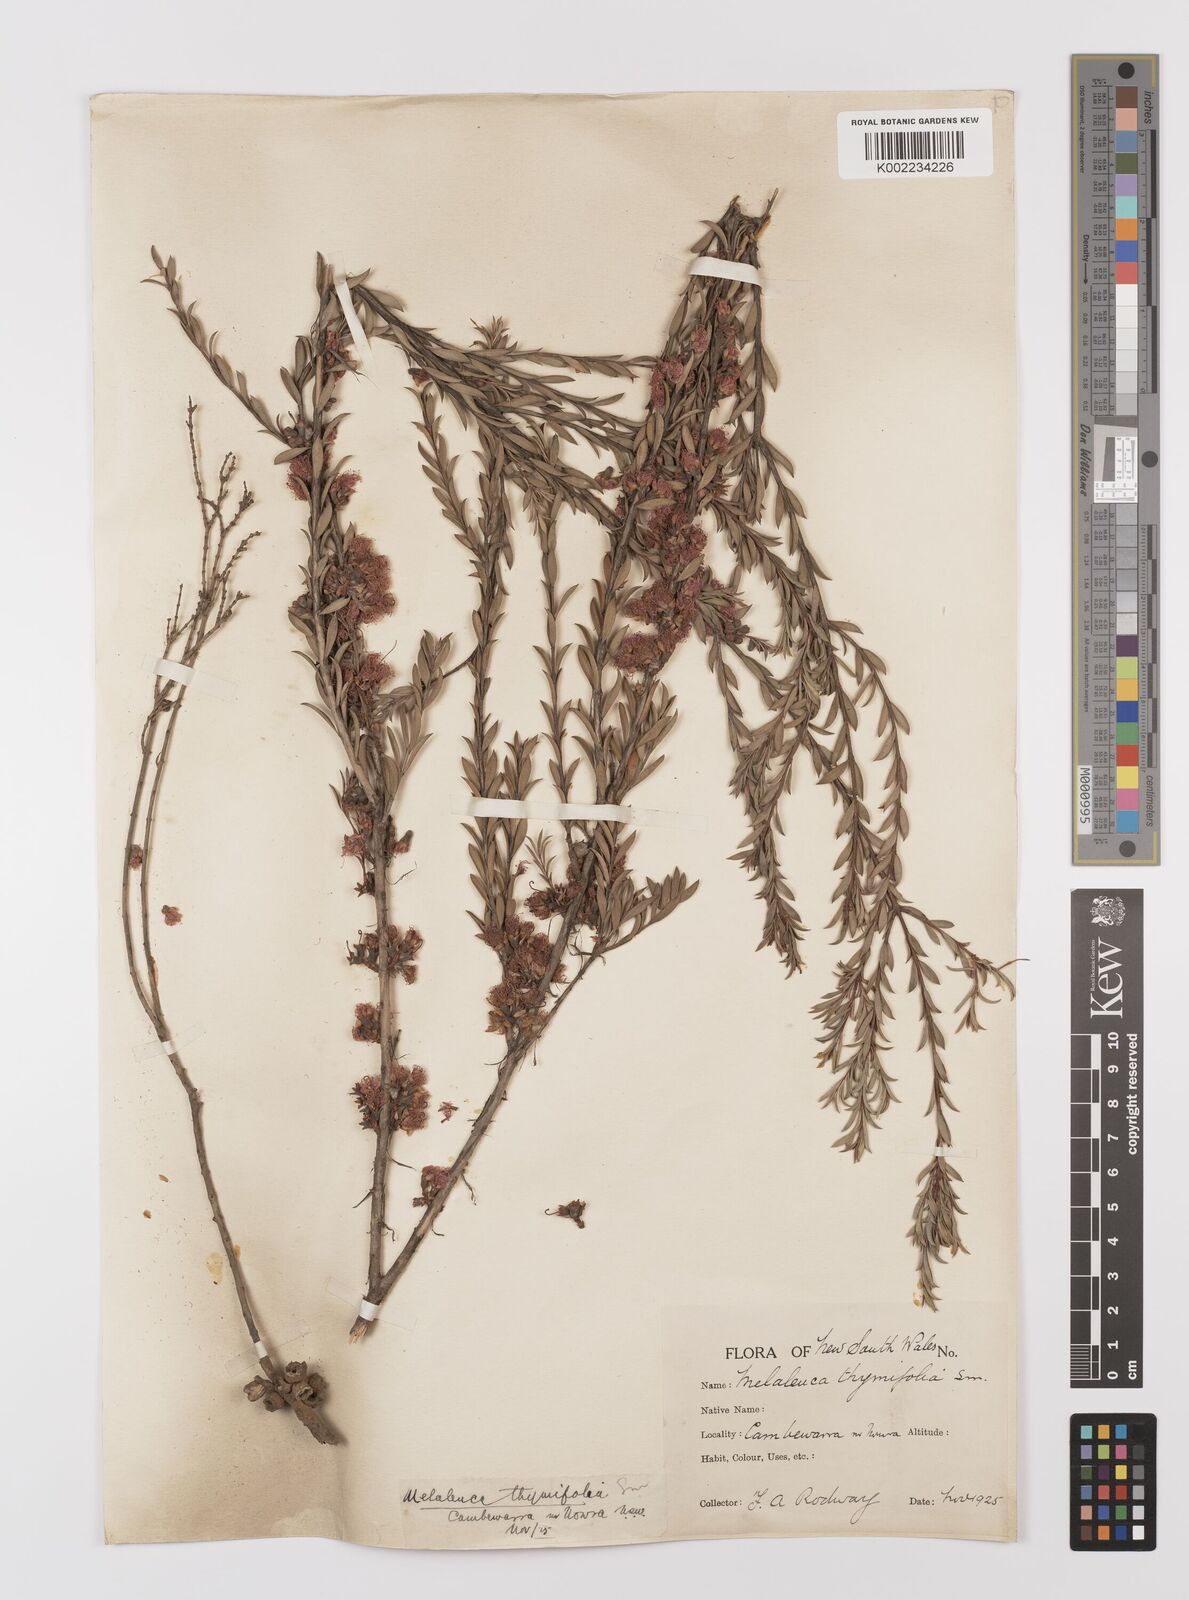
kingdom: Plantae
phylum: Tracheophyta
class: Magnoliopsida
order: Myrtales
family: Myrtaceae
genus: Melaleuca
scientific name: Melaleuca thymifolia
